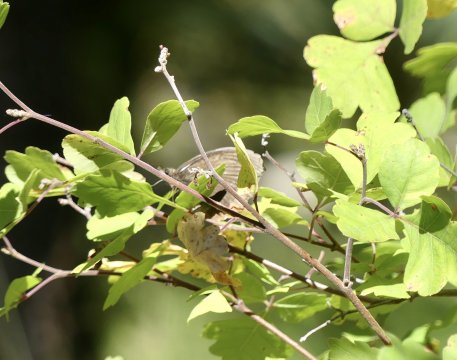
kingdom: Animalia
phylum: Arthropoda
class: Insecta
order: Lepidoptera
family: Nymphalidae
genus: Gyrocheilus
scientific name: Gyrocheilus patrobas
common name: Red-bordered Satyr
